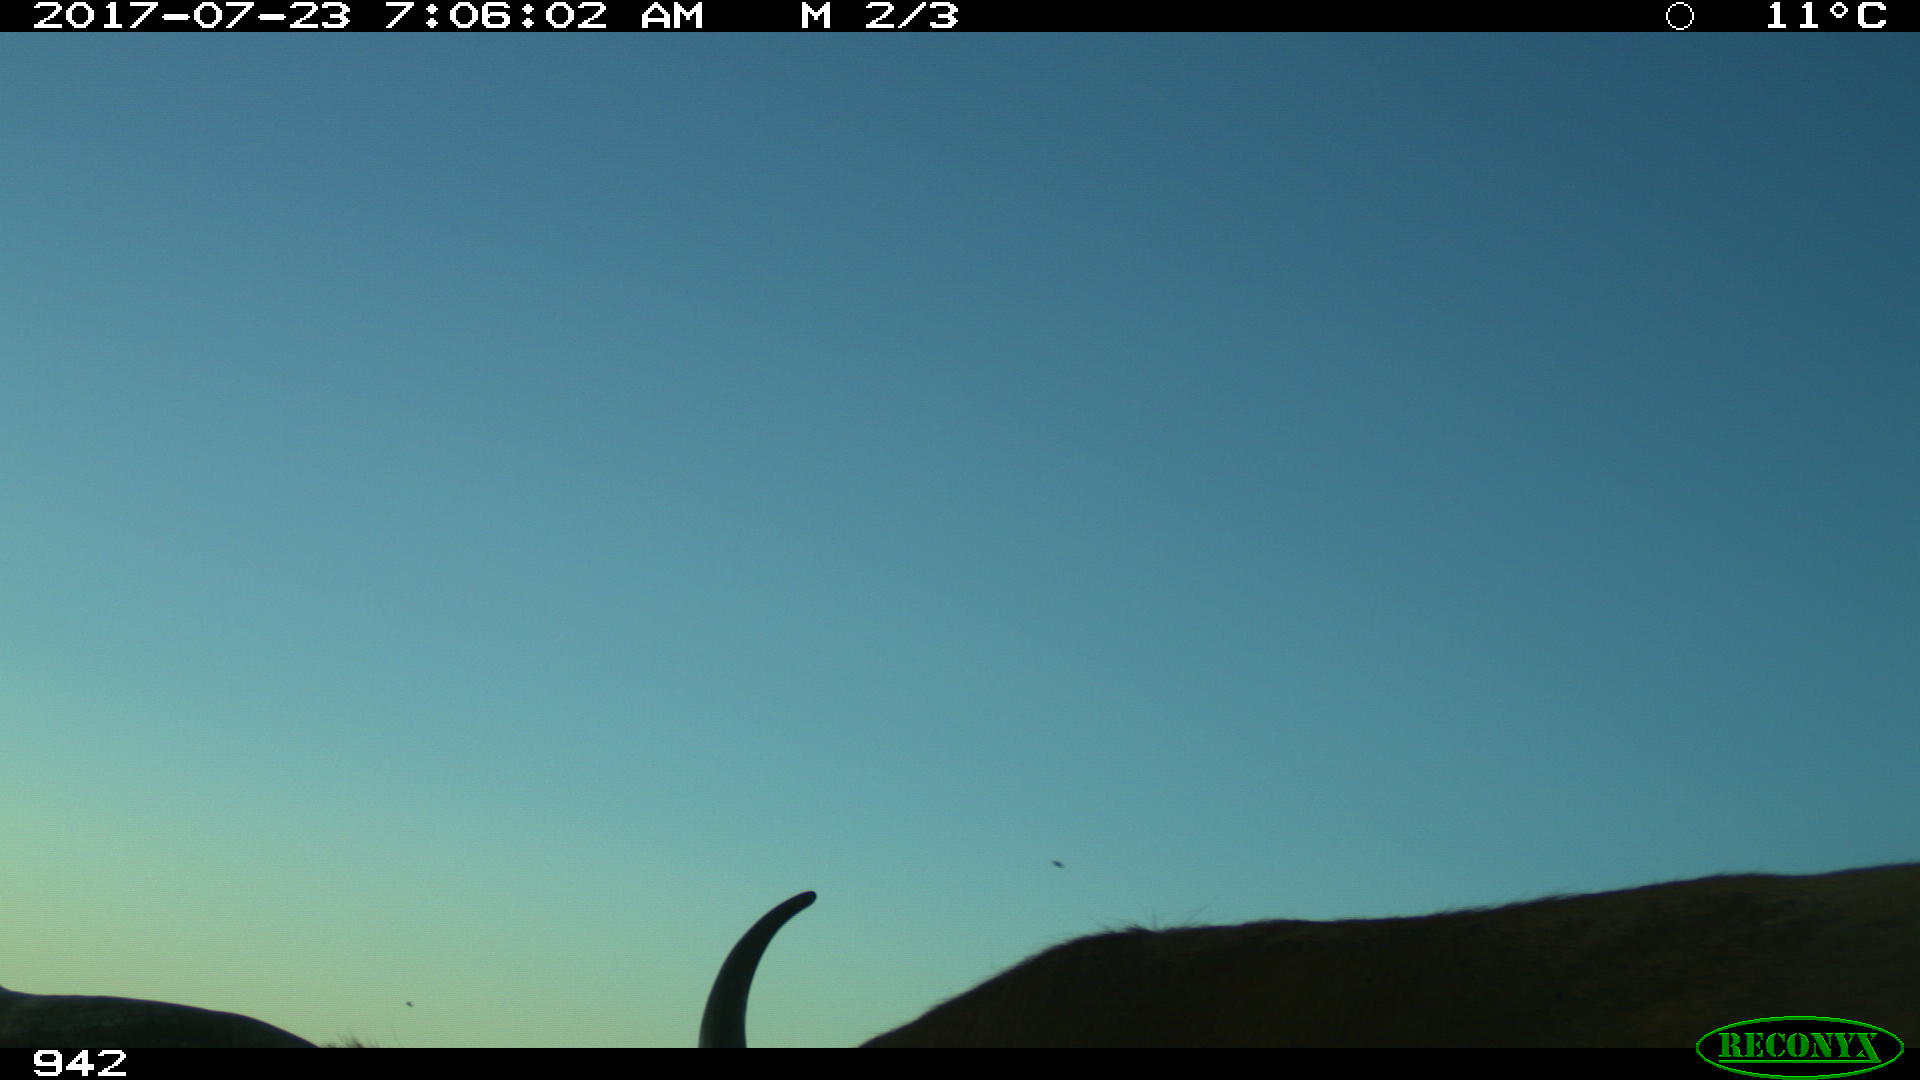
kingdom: Animalia
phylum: Chordata
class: Mammalia
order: Artiodactyla
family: Bovidae
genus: Bos
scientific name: Bos taurus
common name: Domesticated cattle
